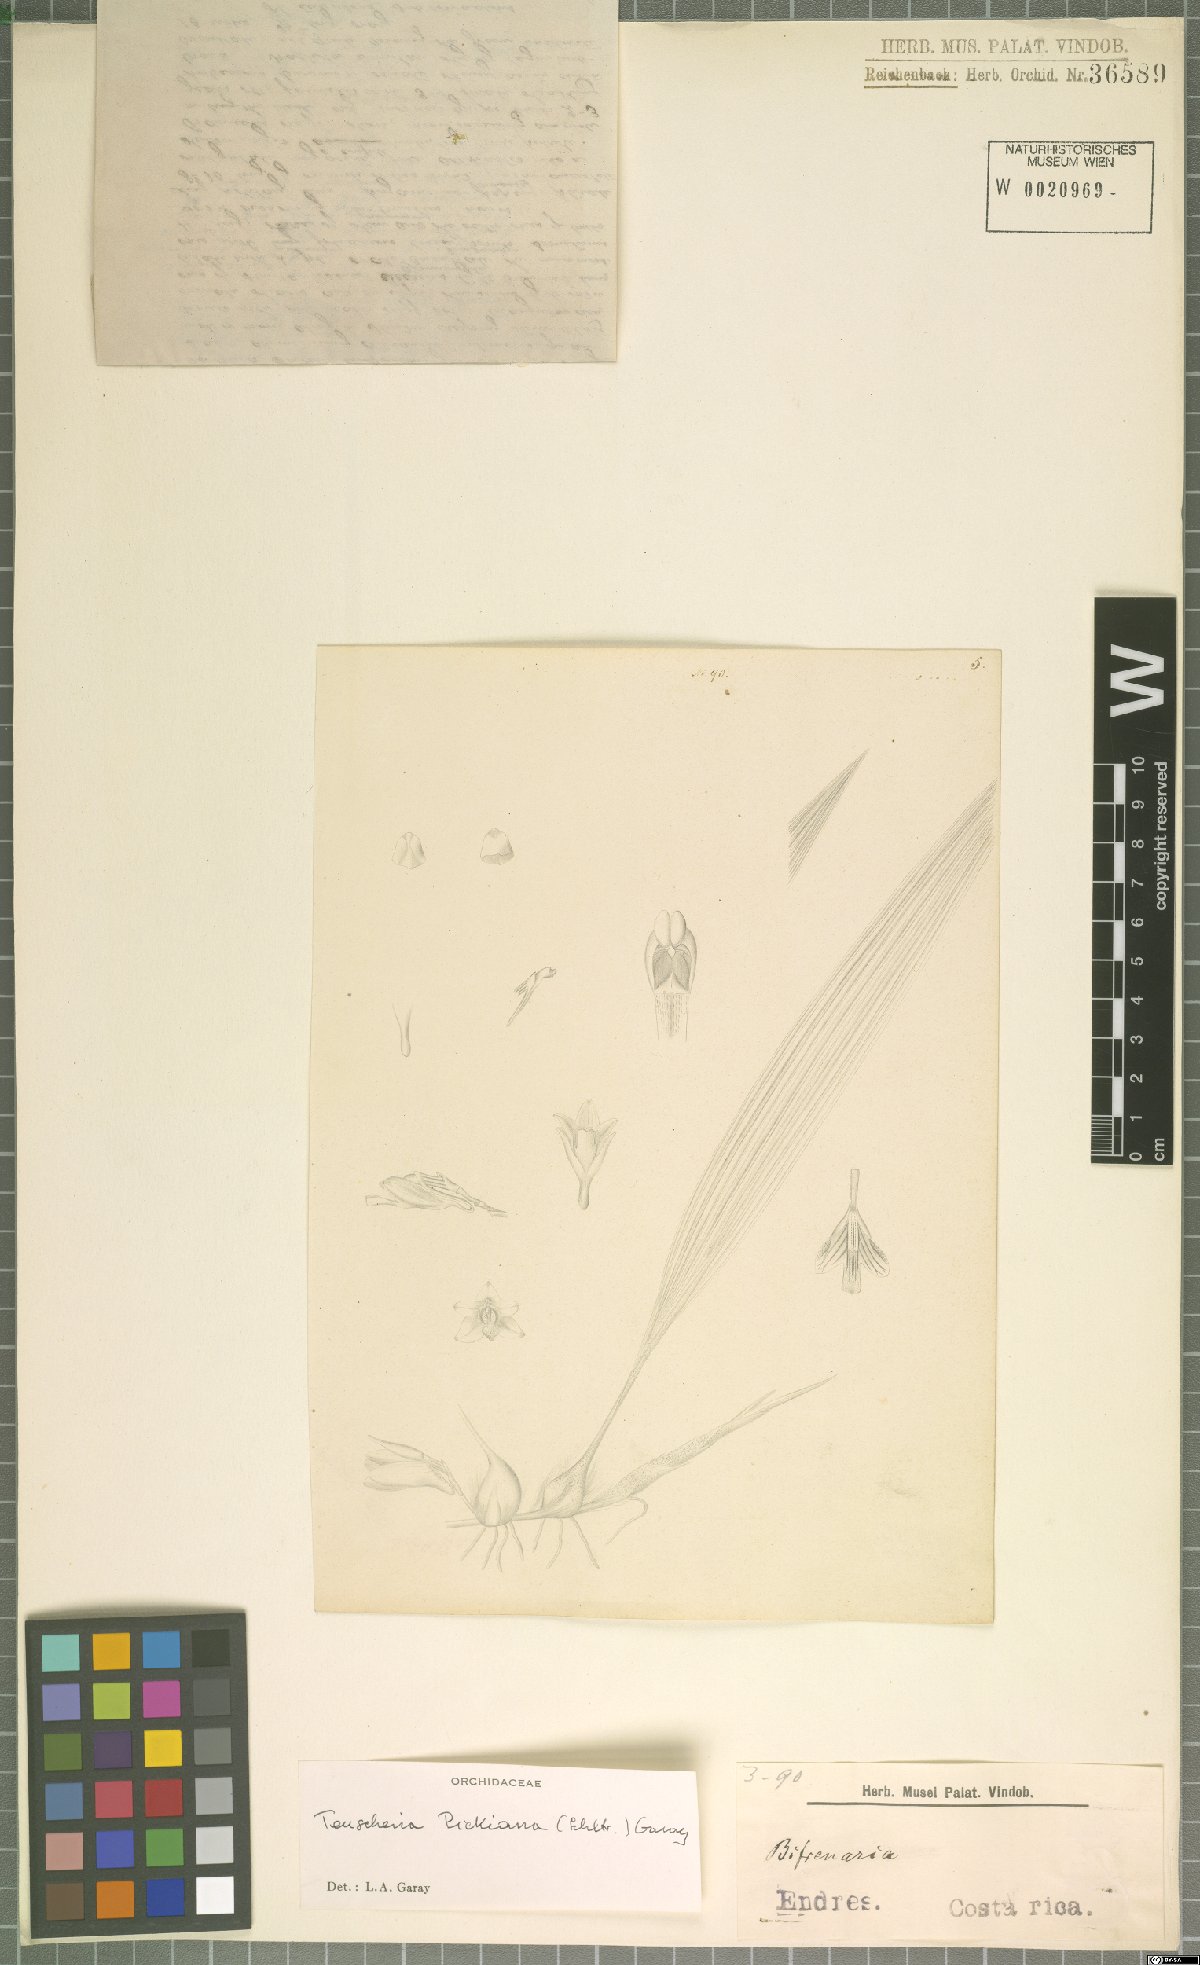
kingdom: Plantae
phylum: Tracheophyta
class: Liliopsida
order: Asparagales
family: Orchidaceae
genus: Teuscheria
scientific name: Teuscheria pickiana
